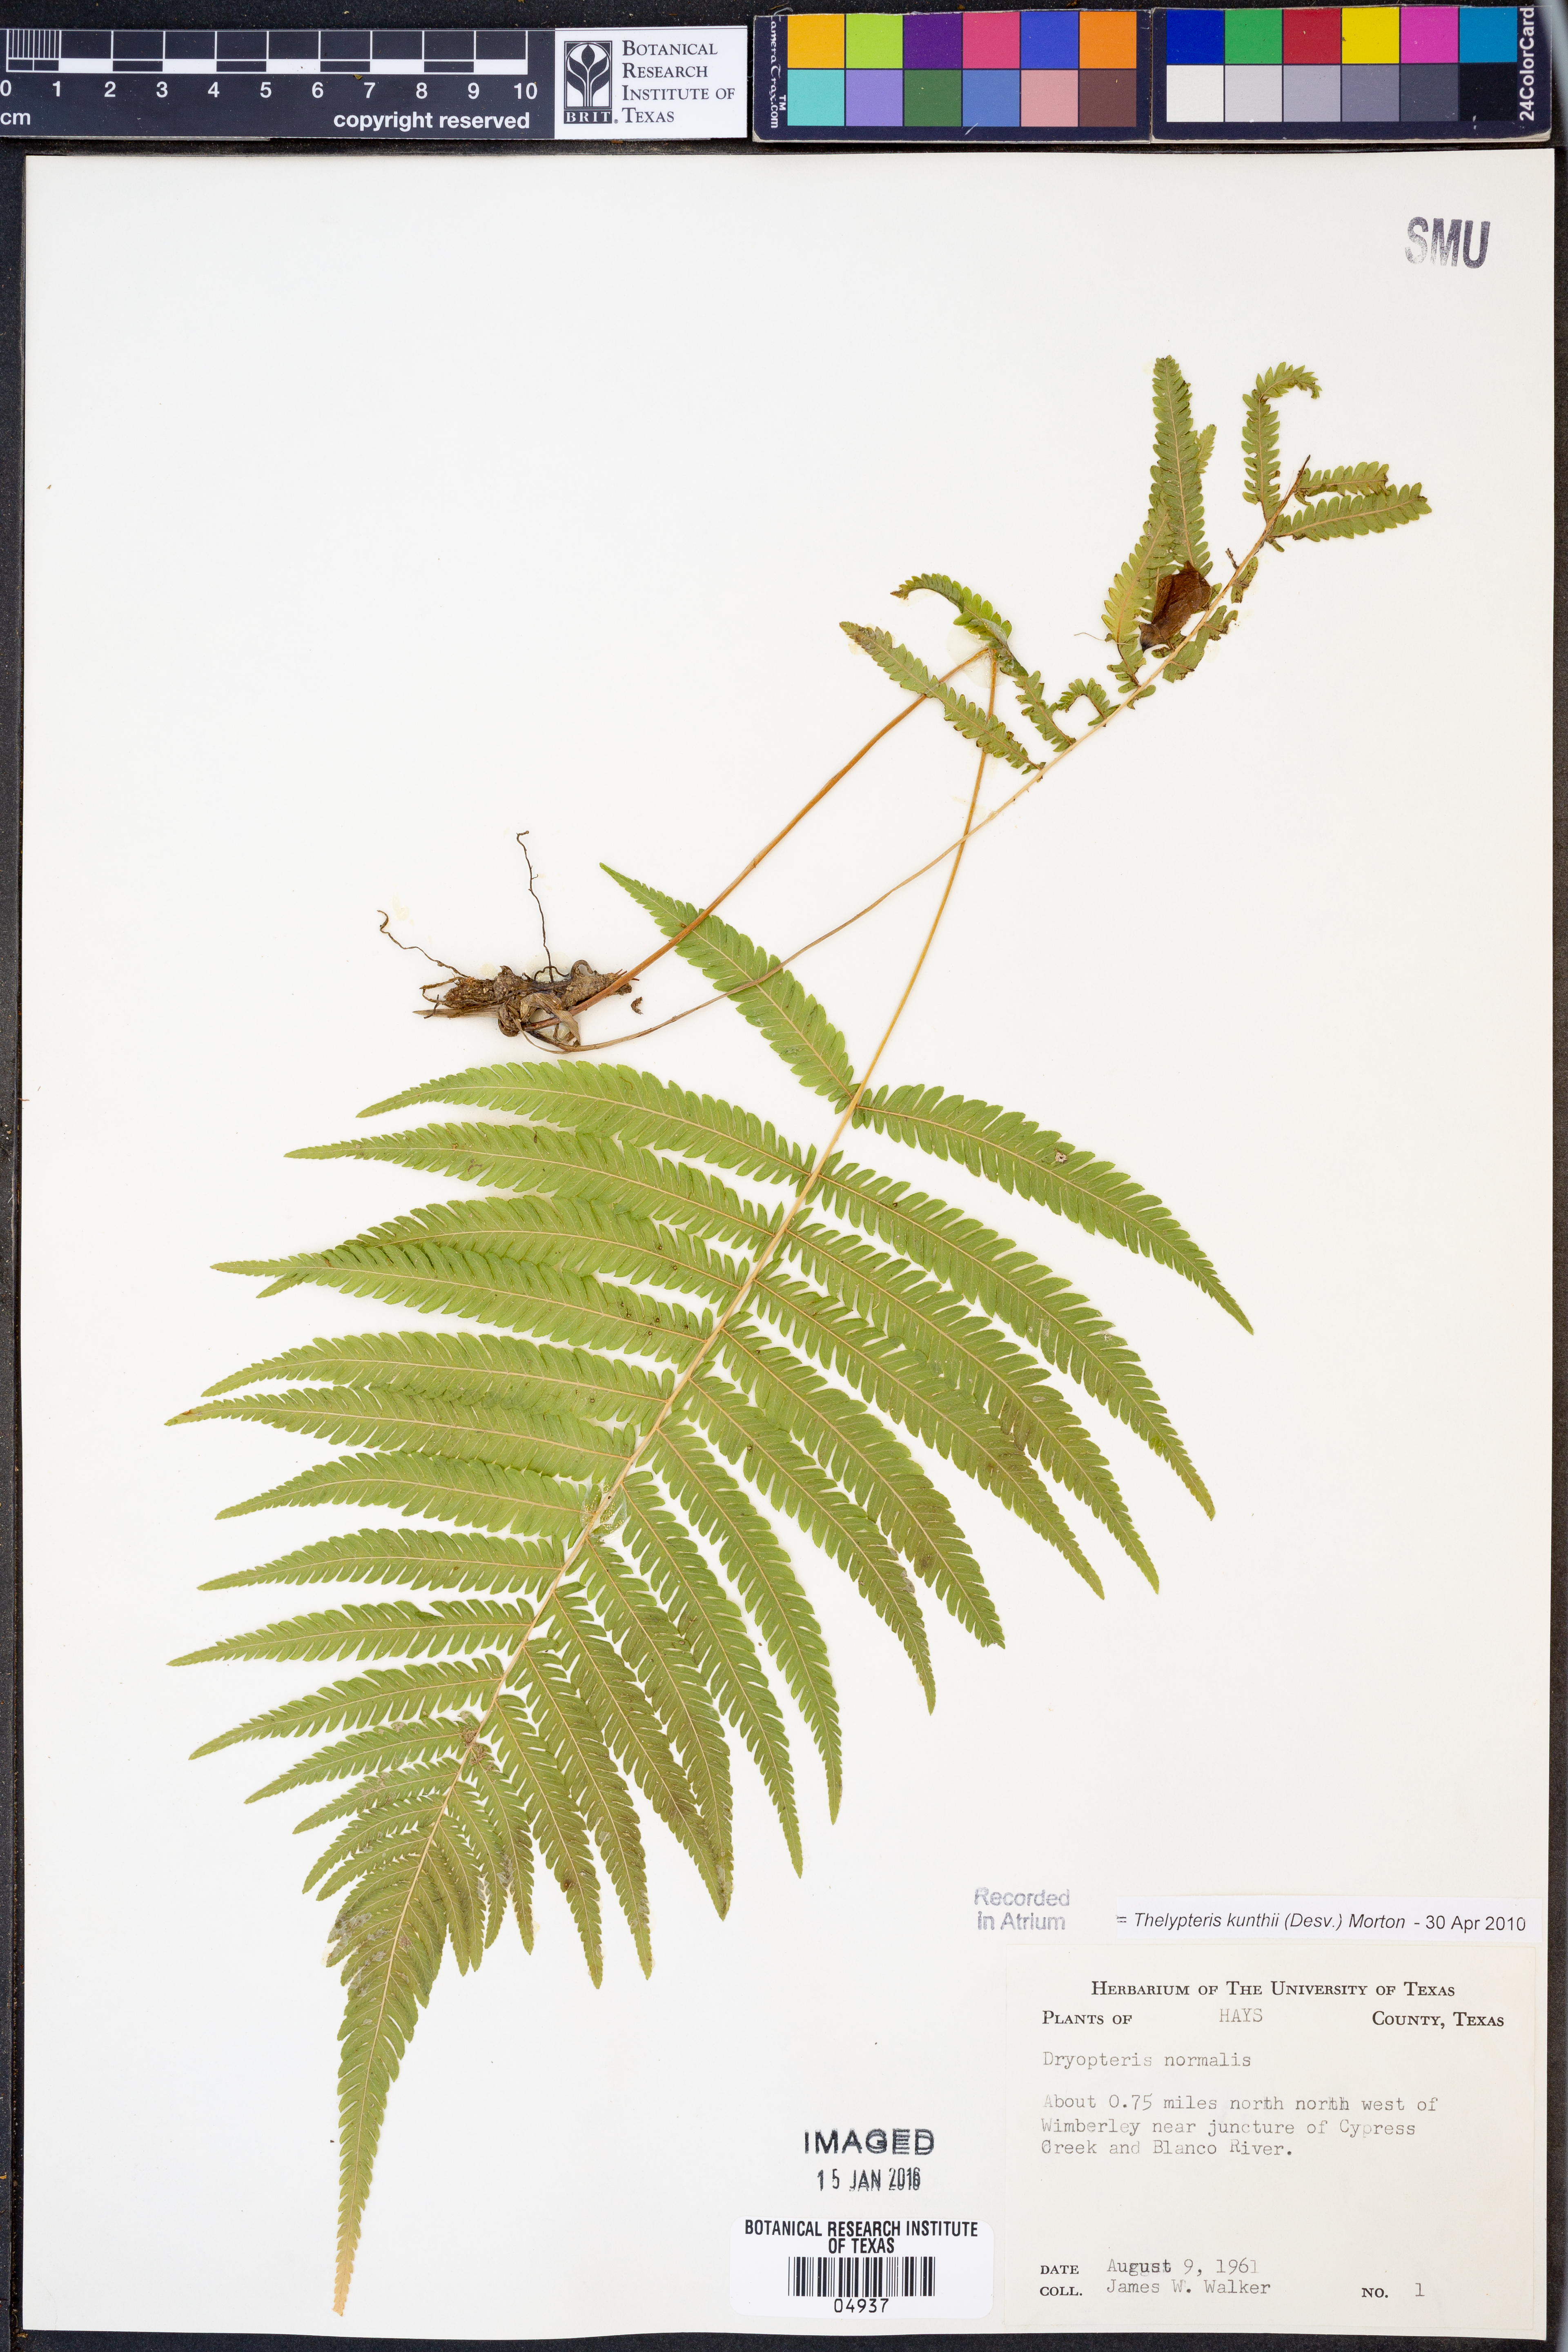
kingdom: Plantae
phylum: Tracheophyta
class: Polypodiopsida
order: Polypodiales
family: Thelypteridaceae
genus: Pelazoneuron
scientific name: Pelazoneuron kunthii
